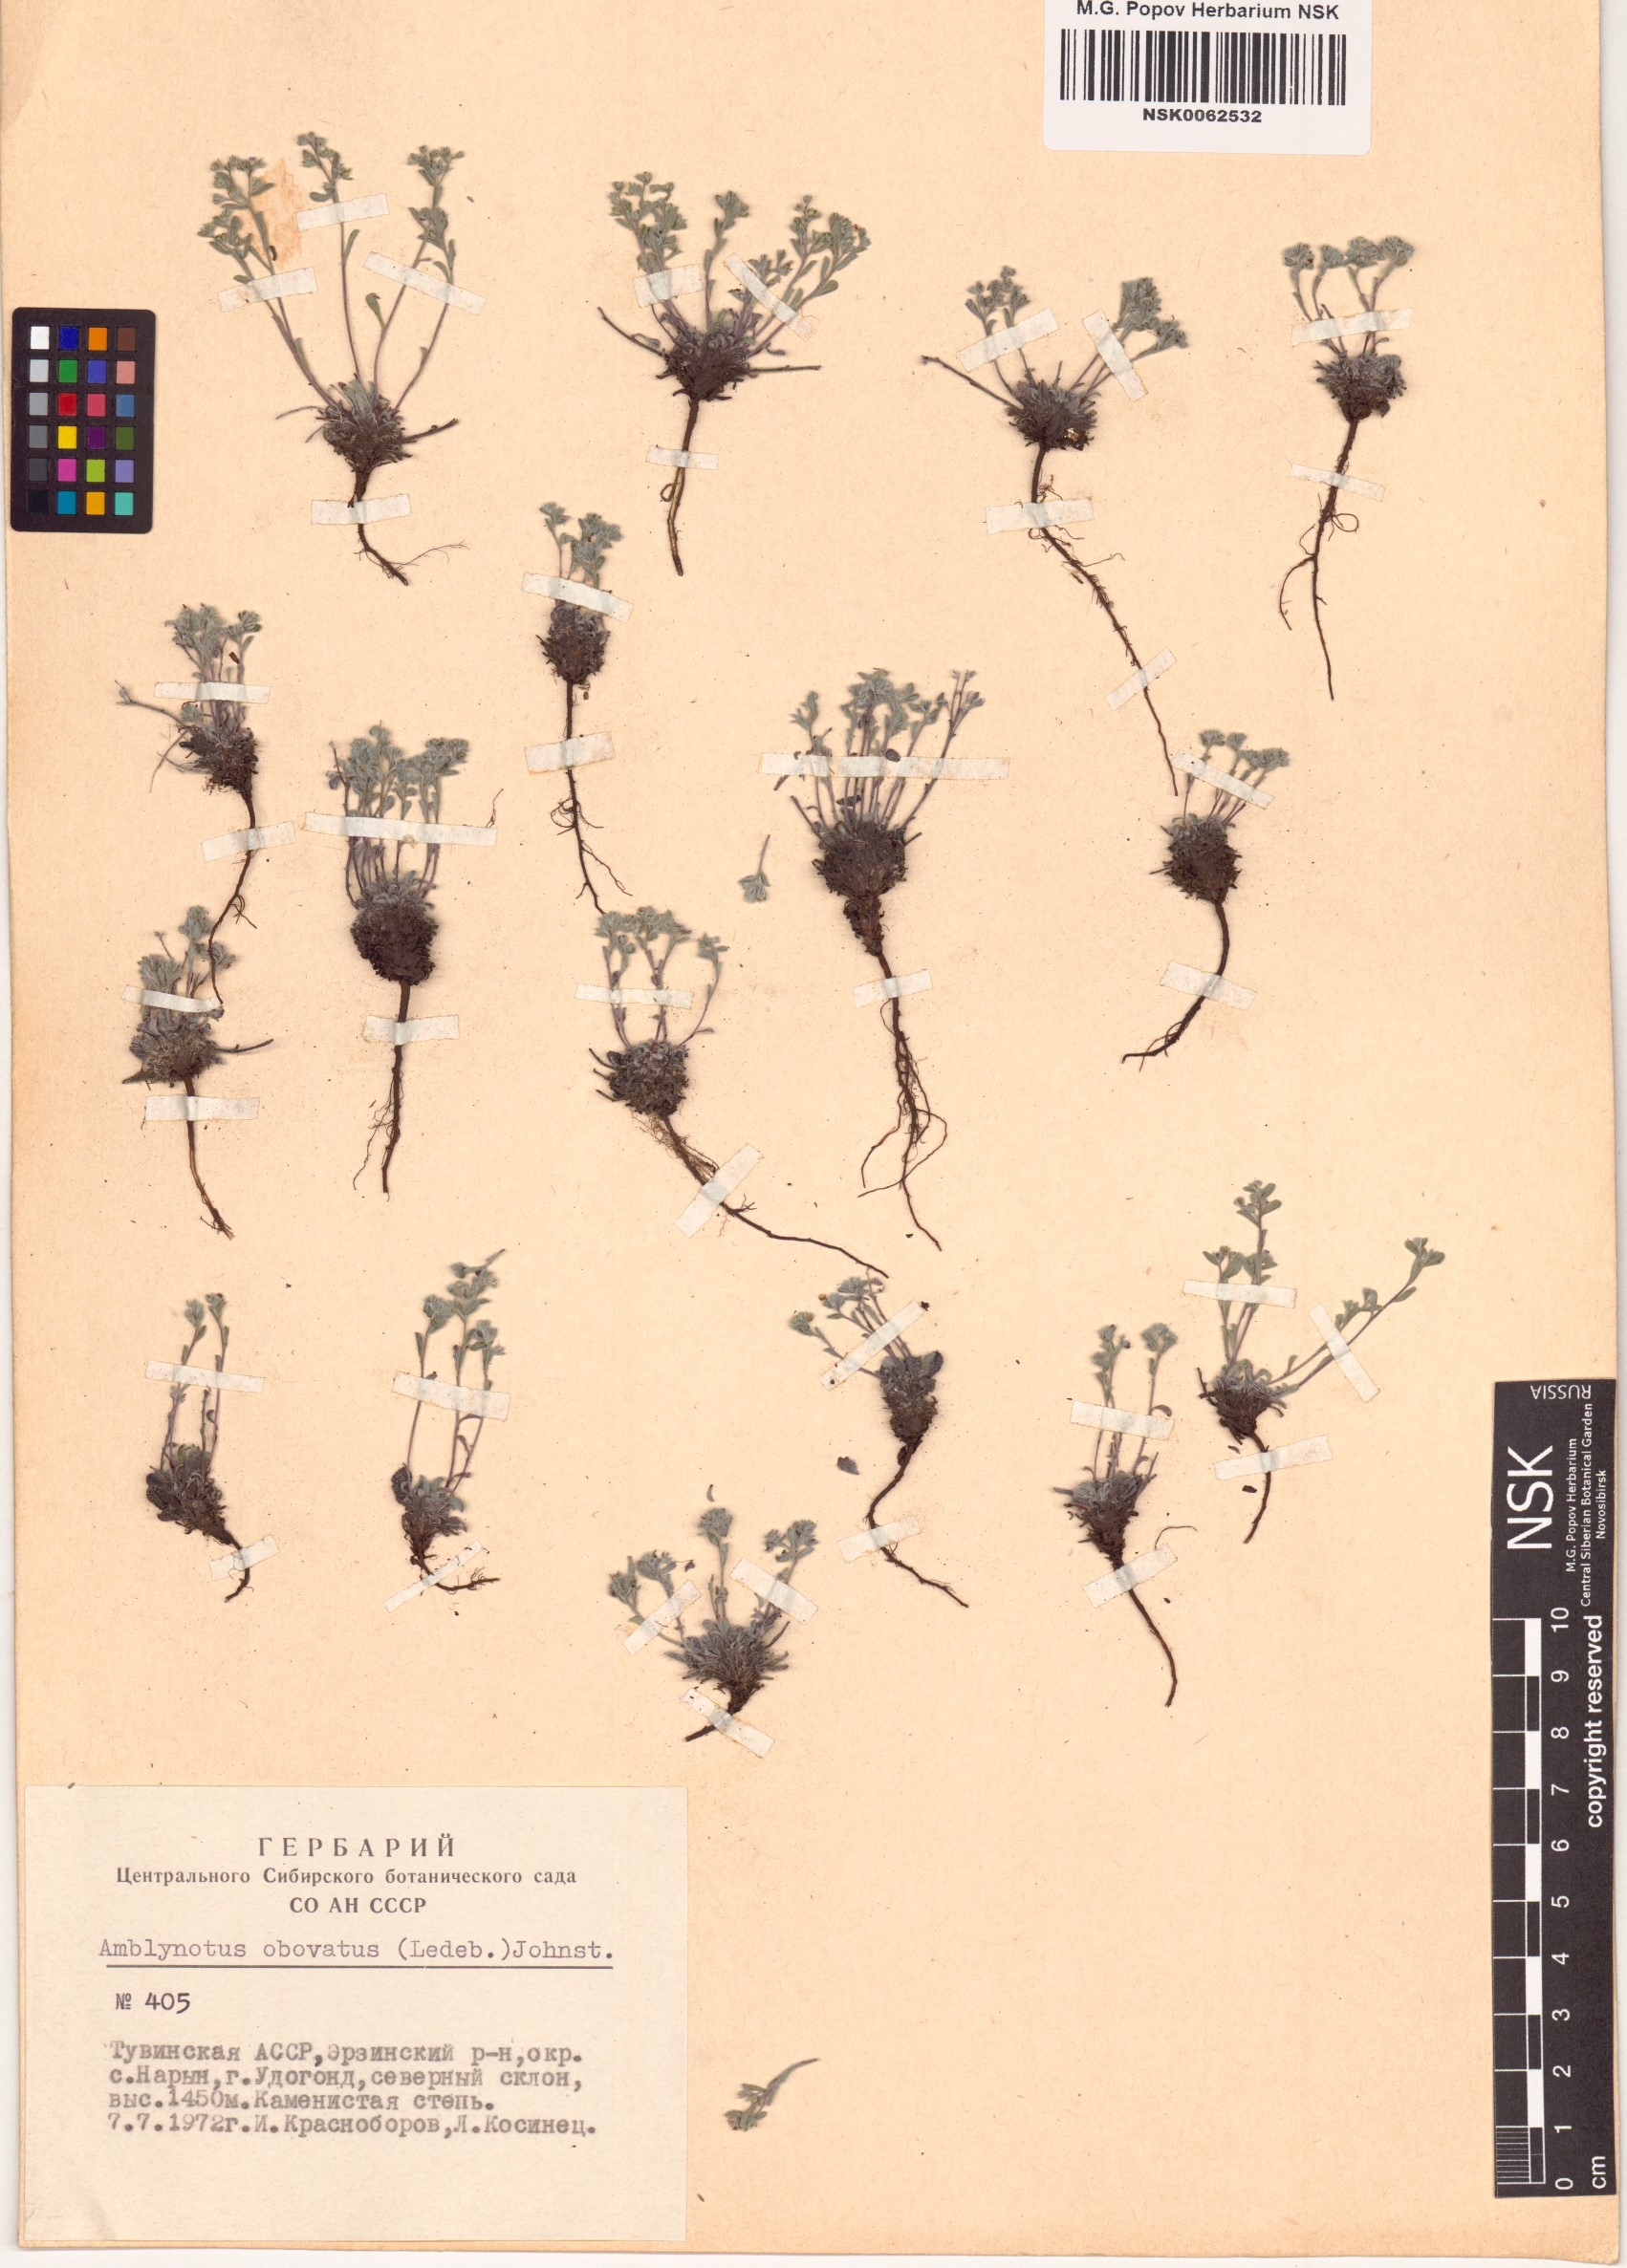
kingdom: Plantae
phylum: Tracheophyta
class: Magnoliopsida
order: Boraginales
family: Boraginaceae
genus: Eritrichium
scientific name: Eritrichium rupestre
